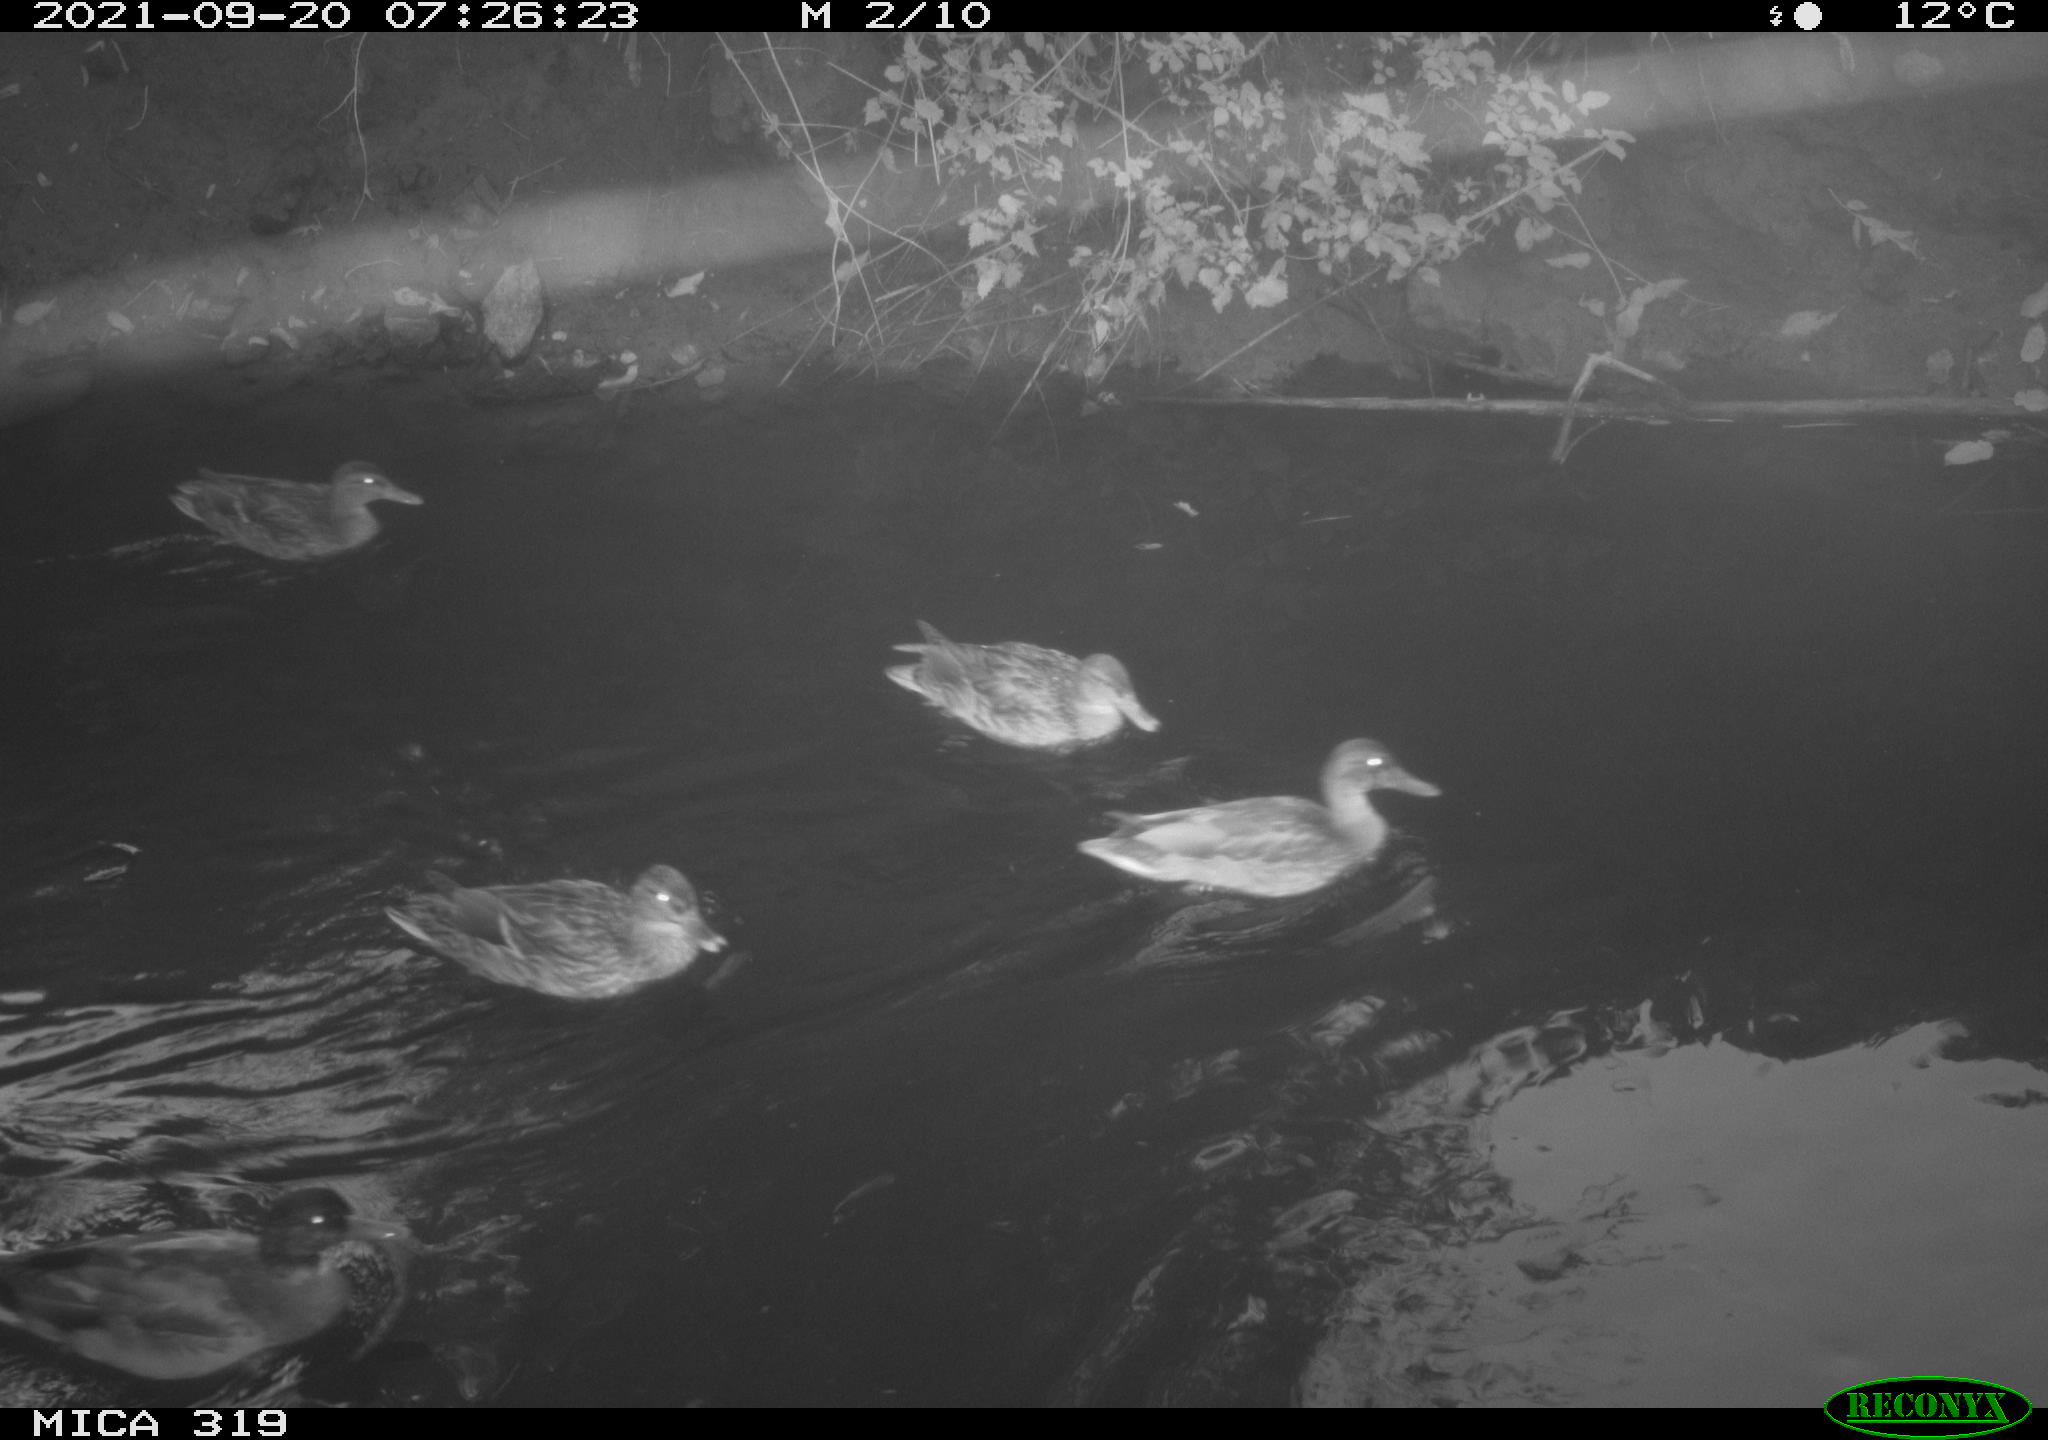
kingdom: Animalia
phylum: Chordata
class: Aves
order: Anseriformes
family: Anatidae
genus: Mareca
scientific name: Mareca strepera
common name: Gadwall
